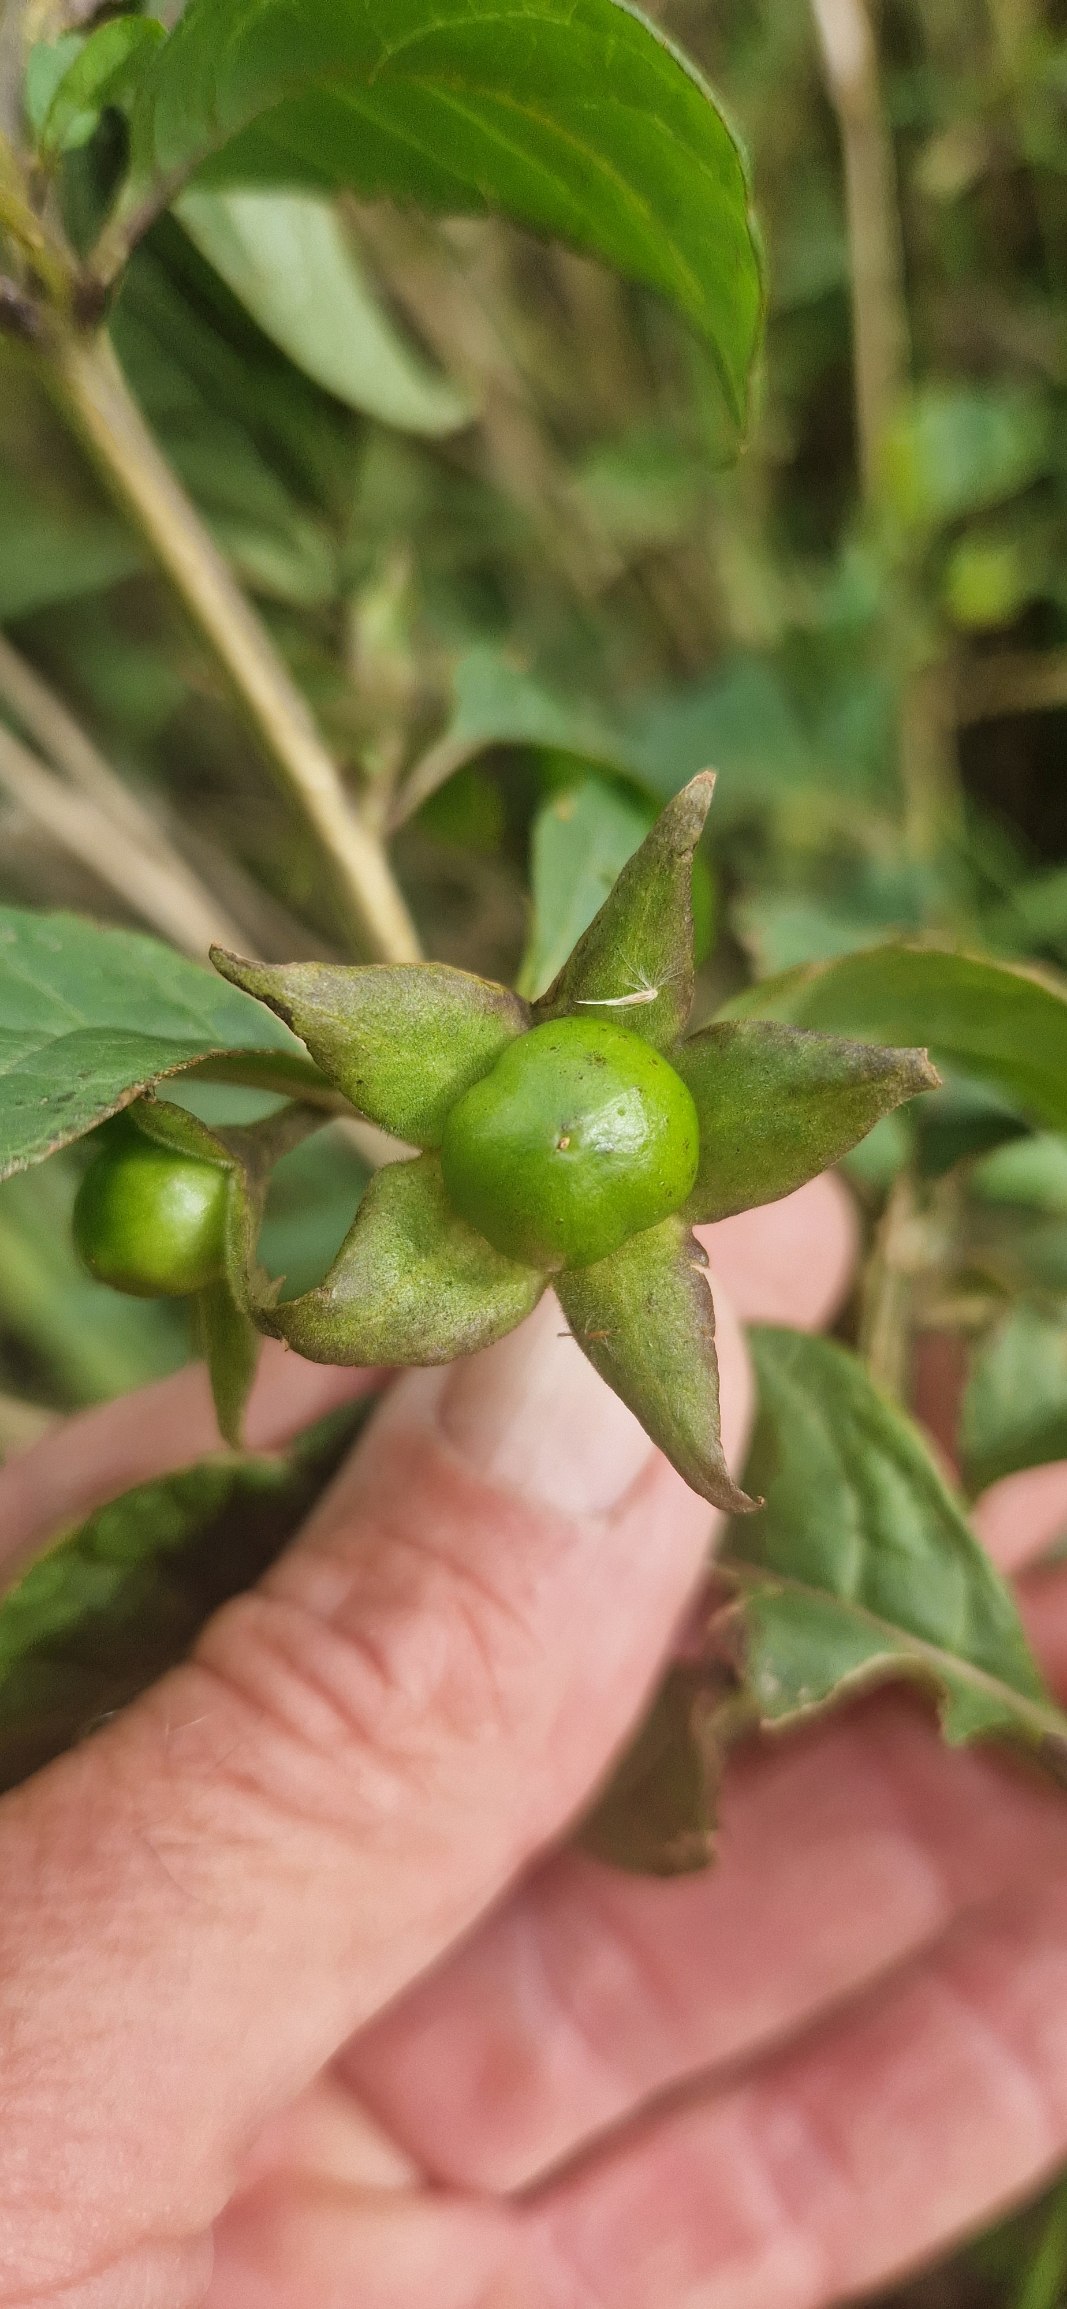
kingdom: Plantae
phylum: Tracheophyta
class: Magnoliopsida
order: Solanales
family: Solanaceae
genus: Atropa
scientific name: Atropa belladonna
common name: Galnebær
